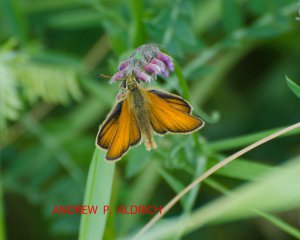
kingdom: Animalia
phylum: Arthropoda
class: Insecta
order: Lepidoptera
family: Hesperiidae
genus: Thymelicus
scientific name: Thymelicus lineola
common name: European Skipper
